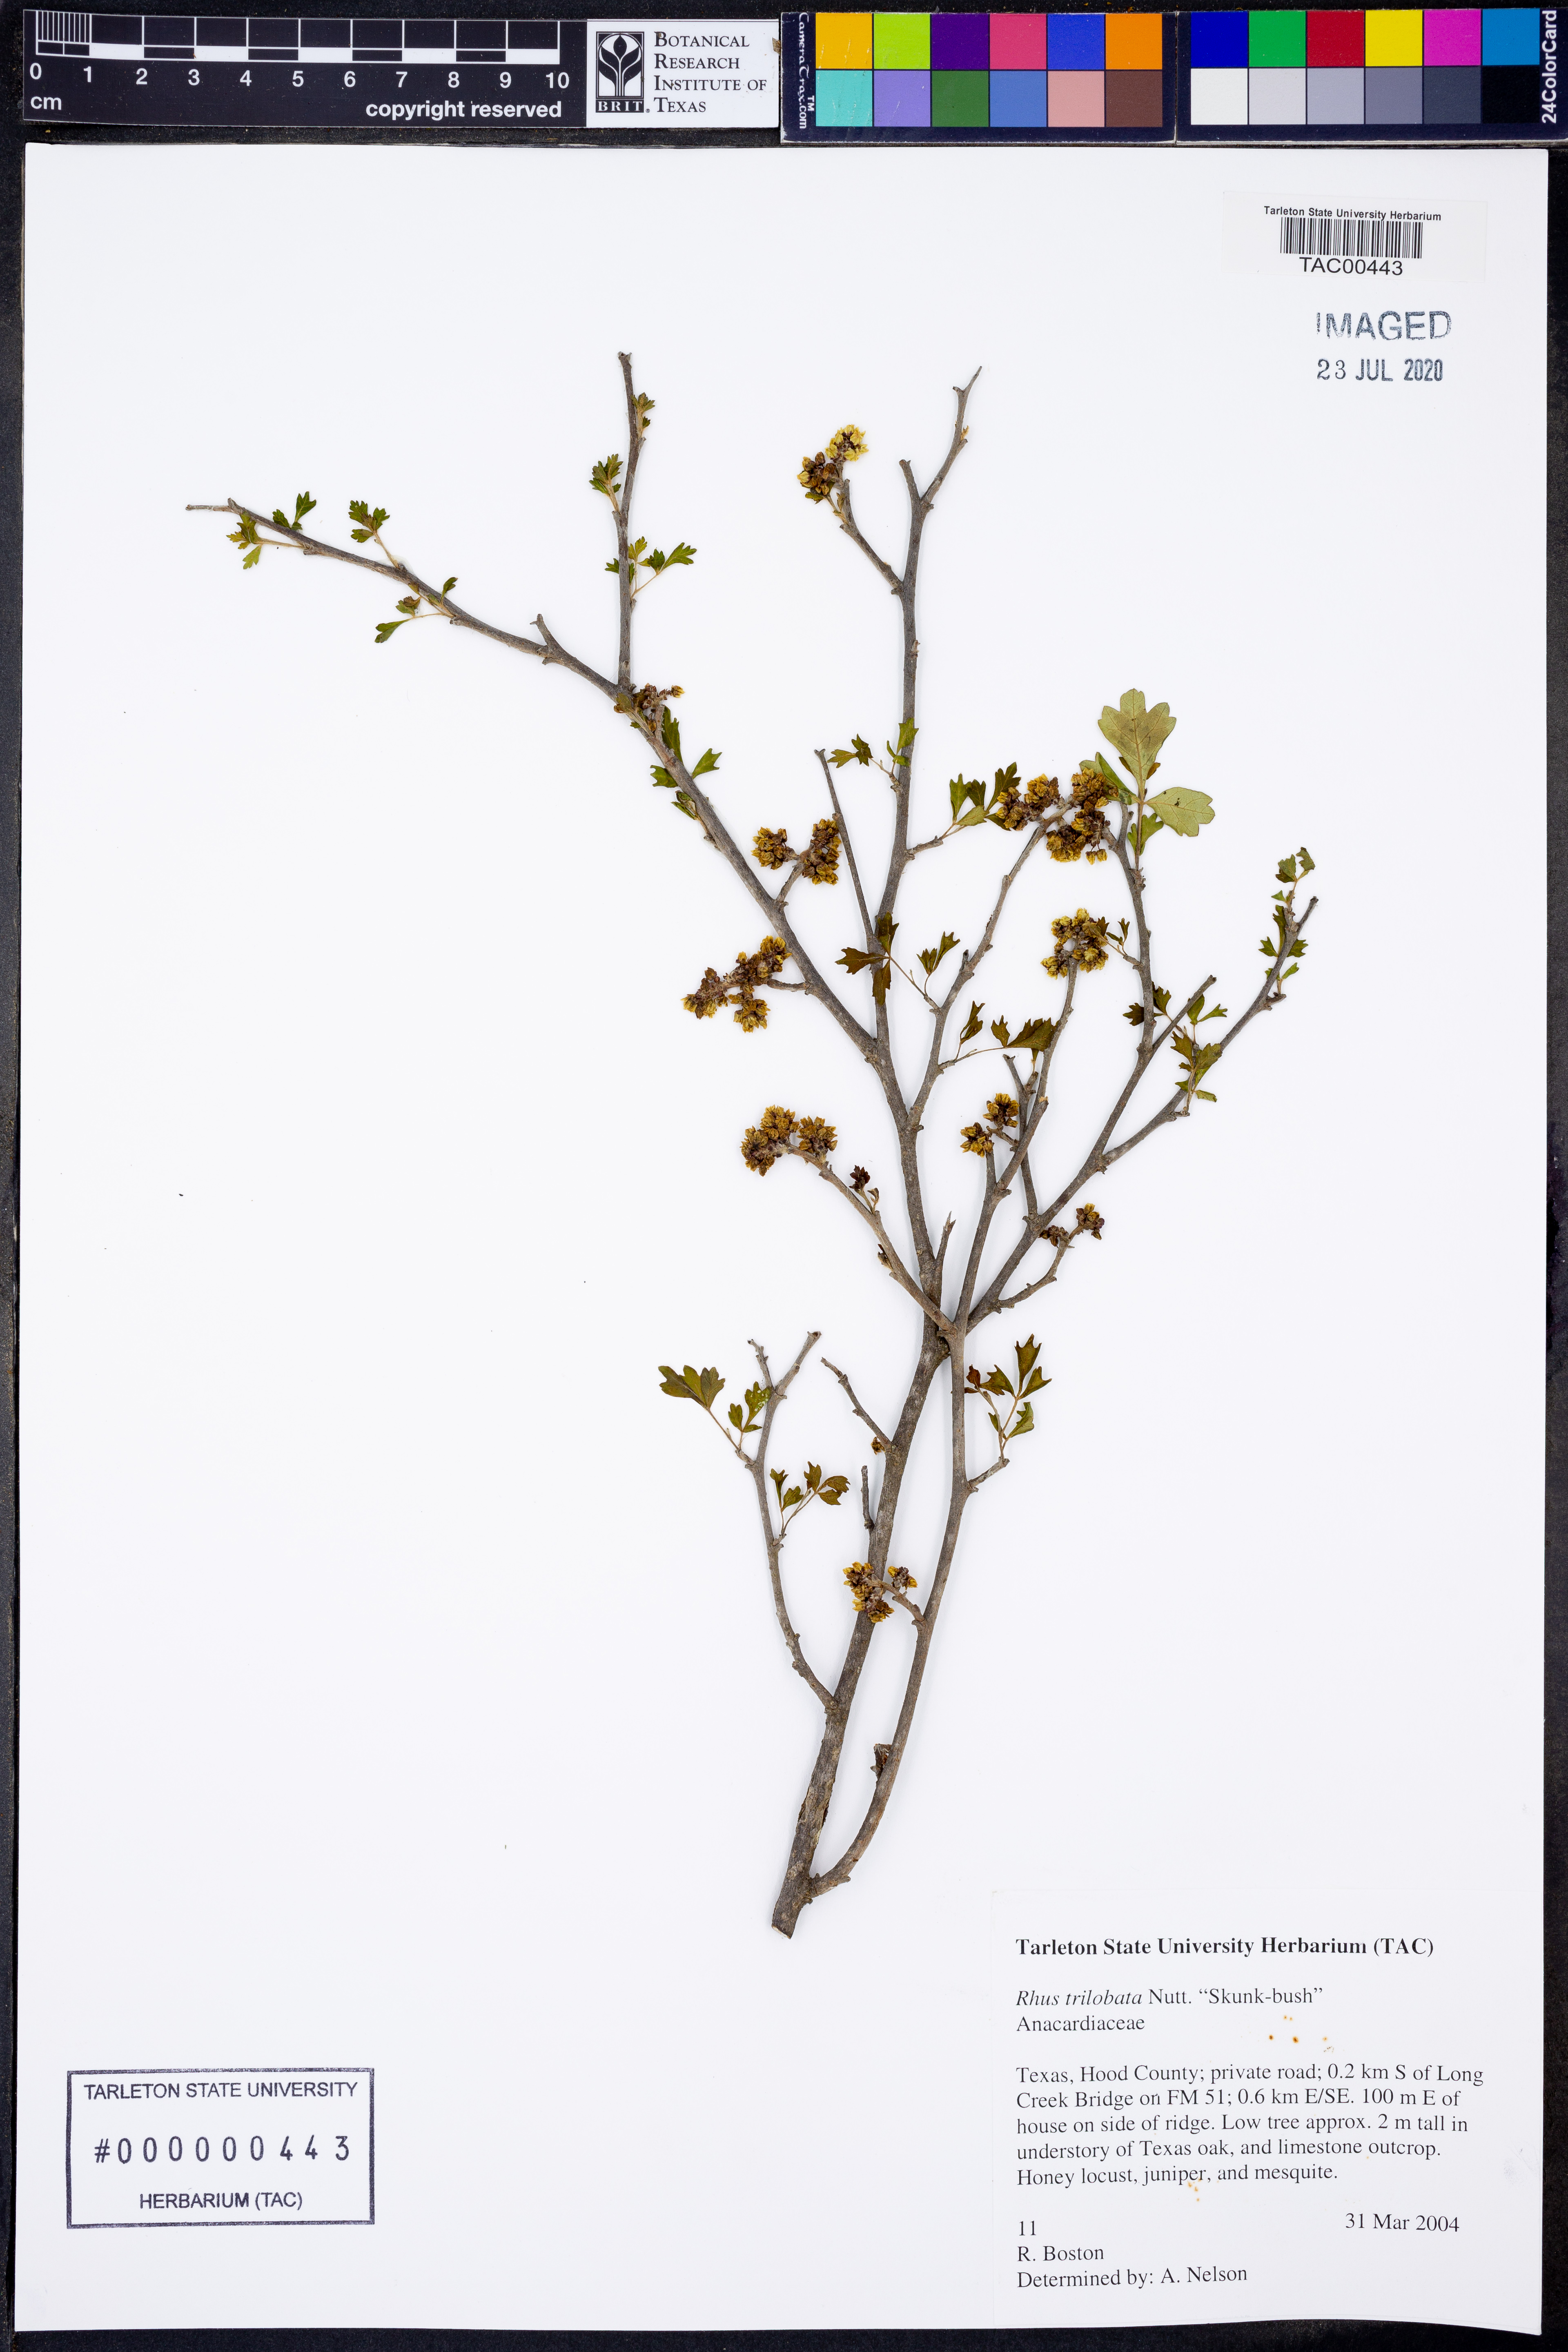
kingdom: Plantae
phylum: Tracheophyta
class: Magnoliopsida
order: Sapindales
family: Anacardiaceae
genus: Rhus
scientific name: Rhus trilobata
